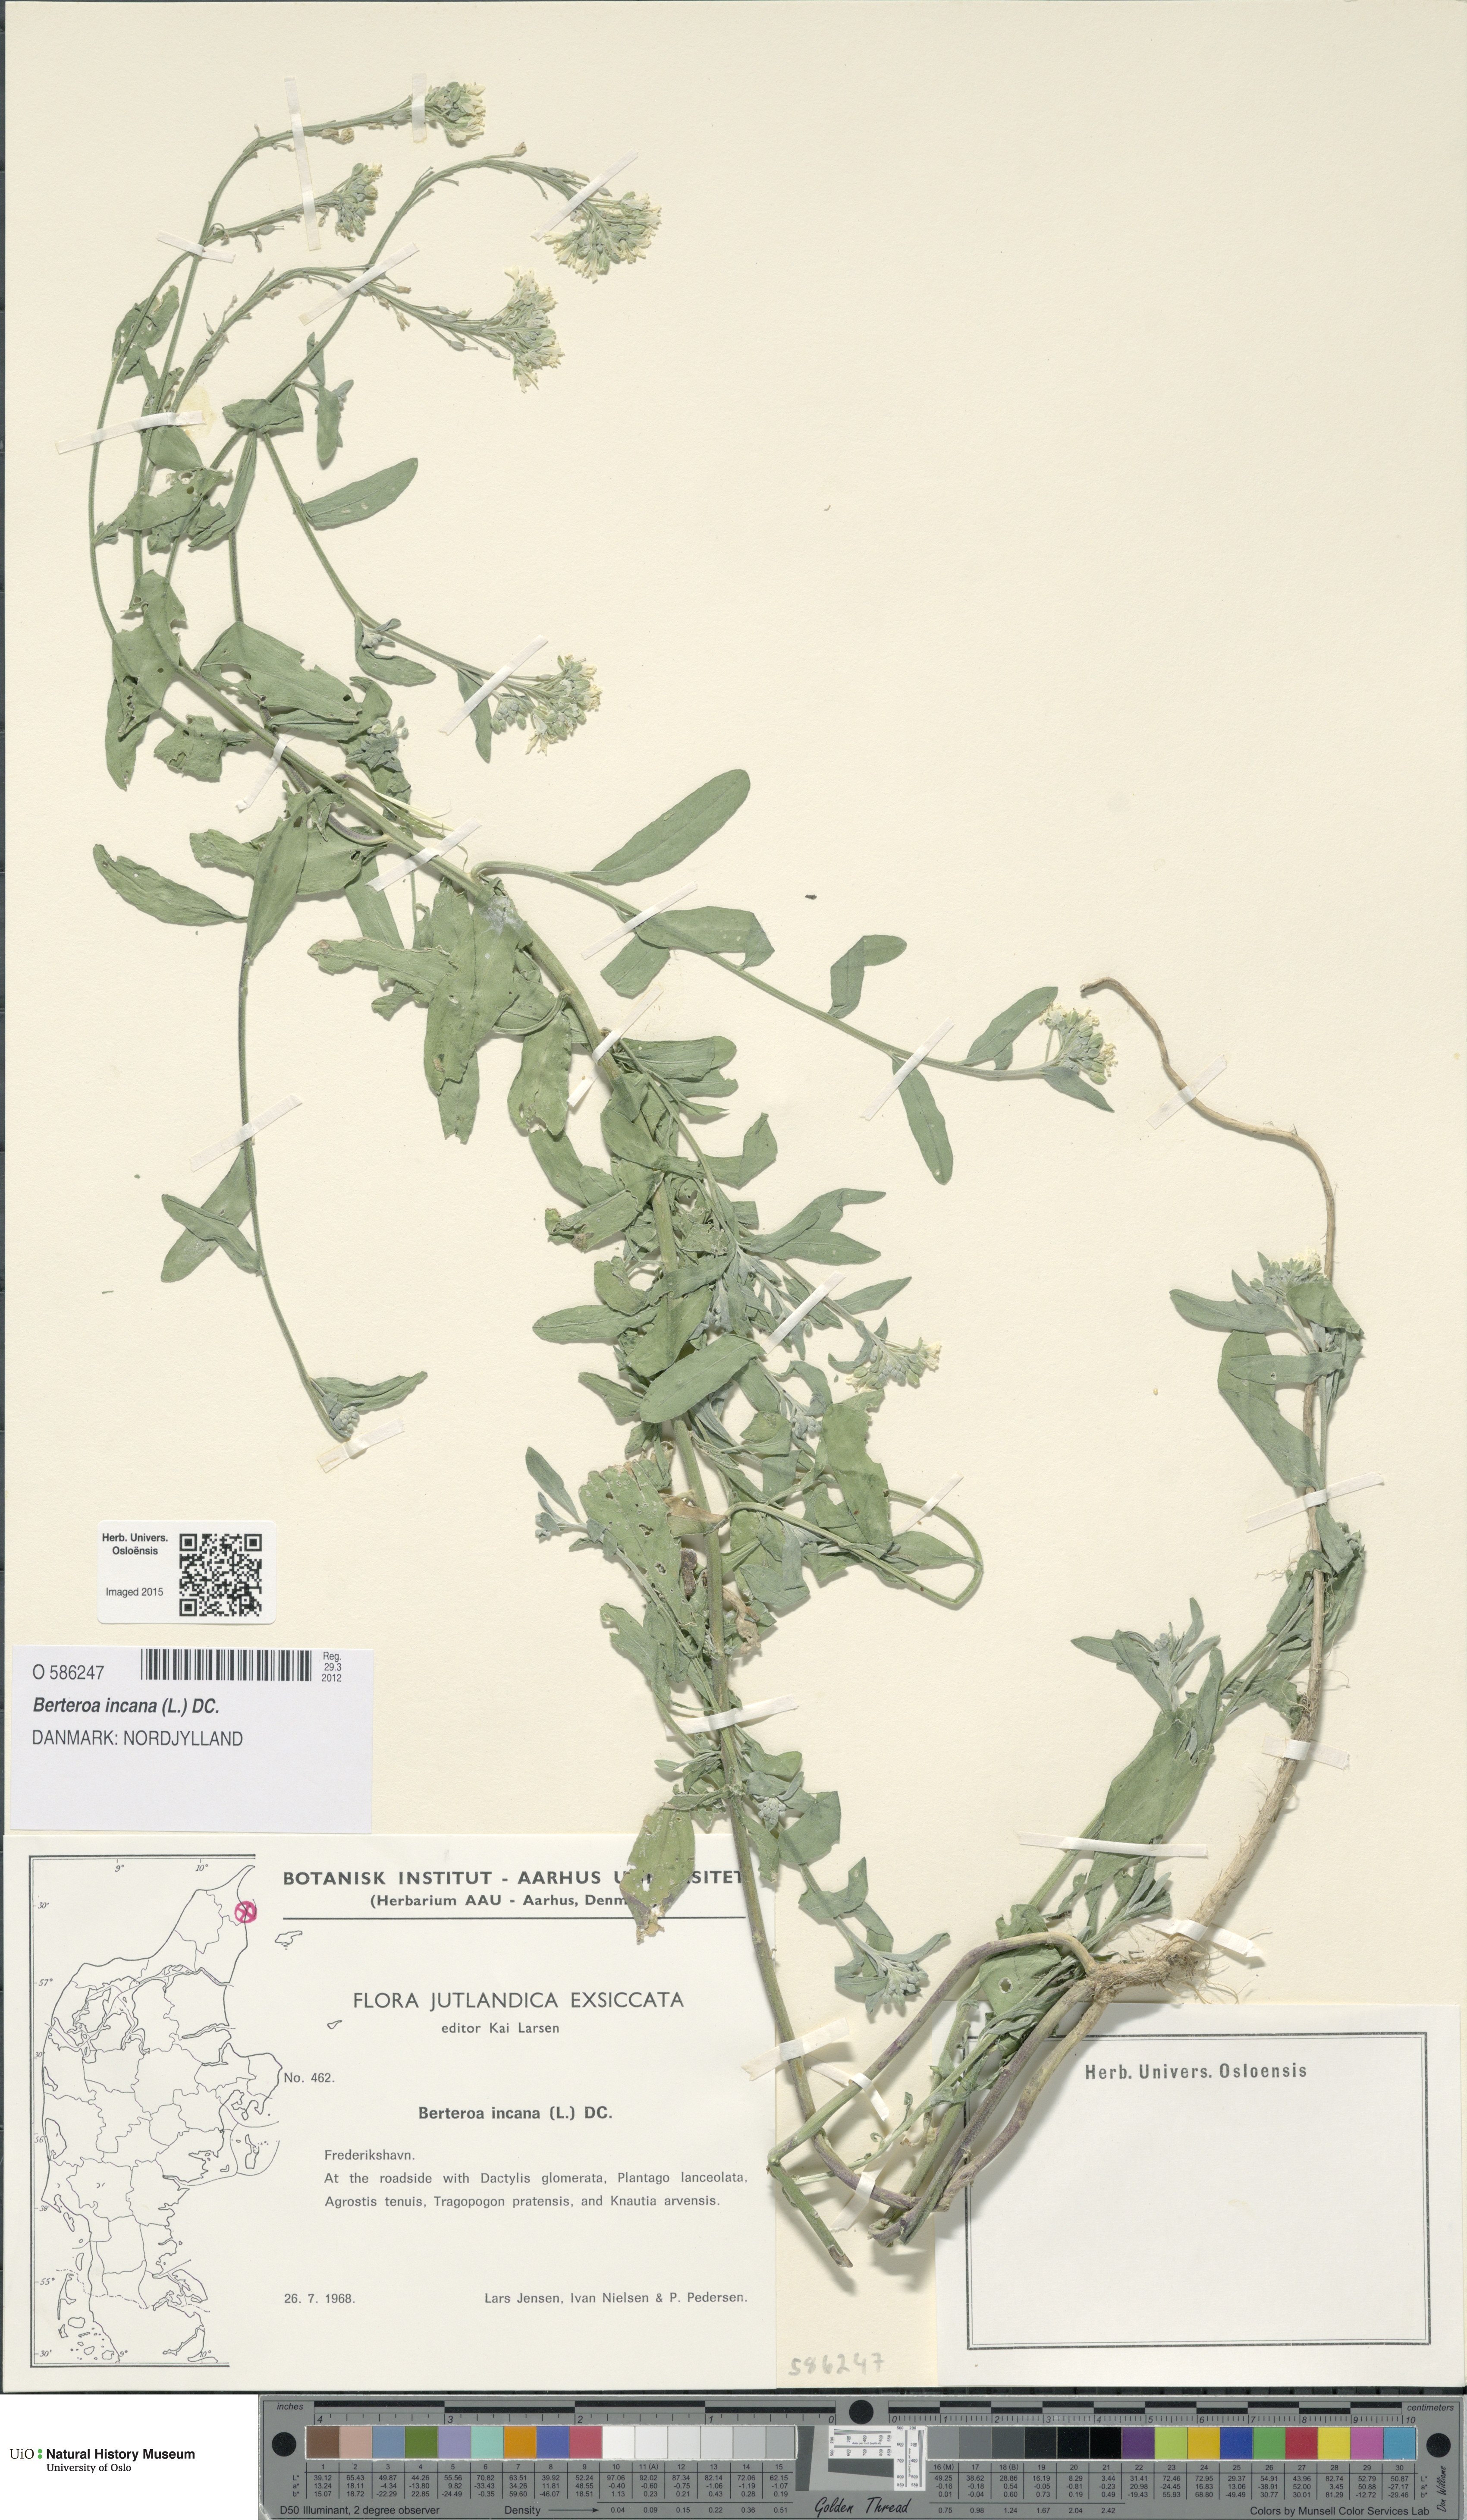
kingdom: Plantae
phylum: Tracheophyta
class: Magnoliopsida
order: Brassicales
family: Brassicaceae
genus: Berteroa
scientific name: Berteroa incana
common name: Hoary alison
